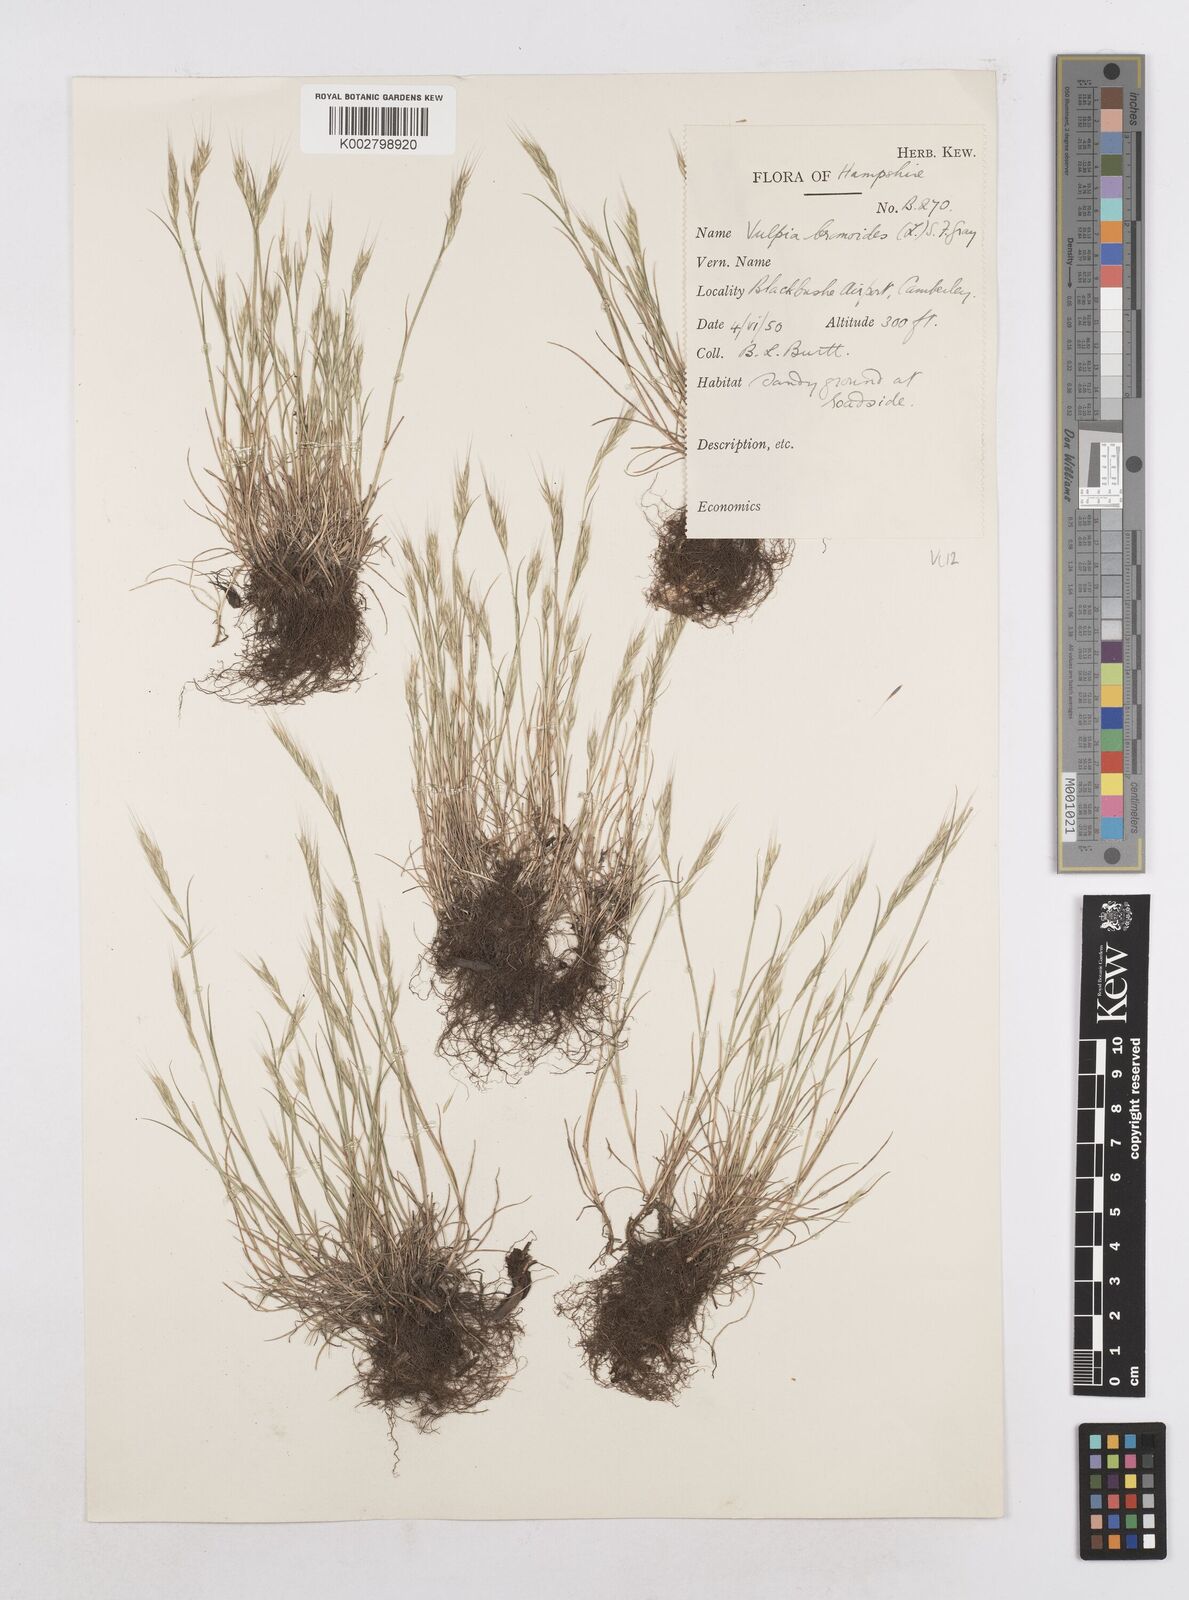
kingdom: Plantae
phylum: Tracheophyta
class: Liliopsida
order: Poales
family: Poaceae
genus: Festuca
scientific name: Festuca bromoides
